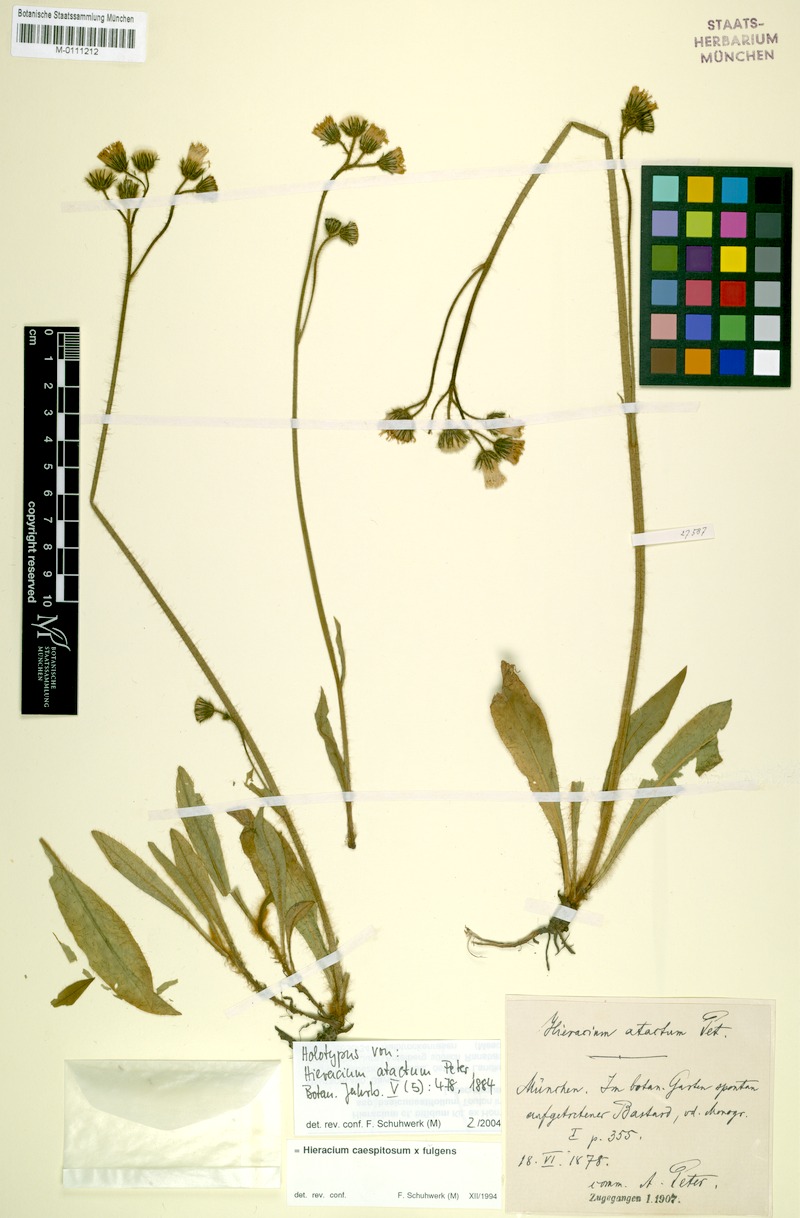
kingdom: Plantae
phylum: Tracheophyta
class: Magnoliopsida
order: Asterales
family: Asteraceae
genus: Hieracium
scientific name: Hieracium atactum
